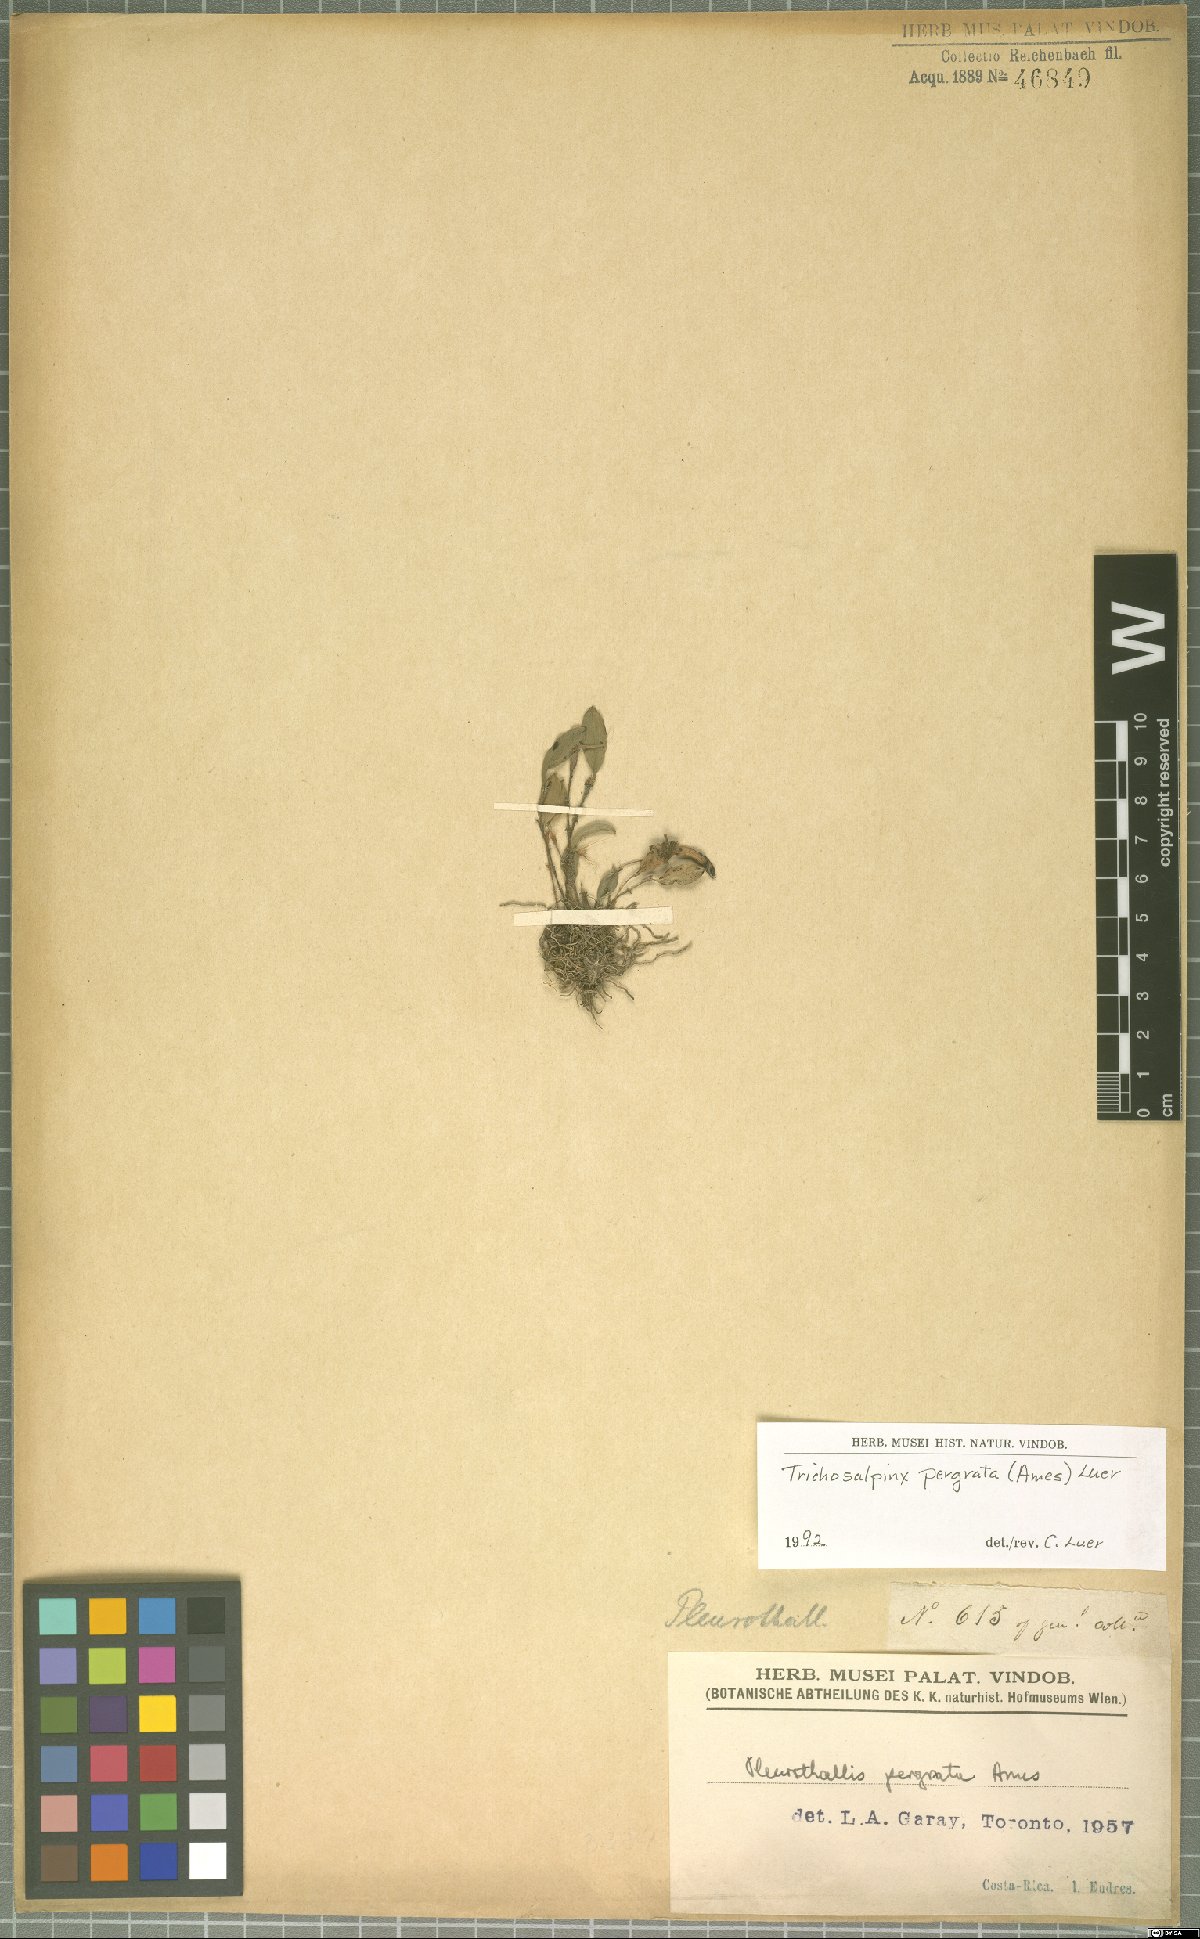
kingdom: Plantae
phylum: Tracheophyta
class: Liliopsida
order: Asparagales
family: Orchidaceae
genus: Stellamaris
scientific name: Stellamaris pergrata
